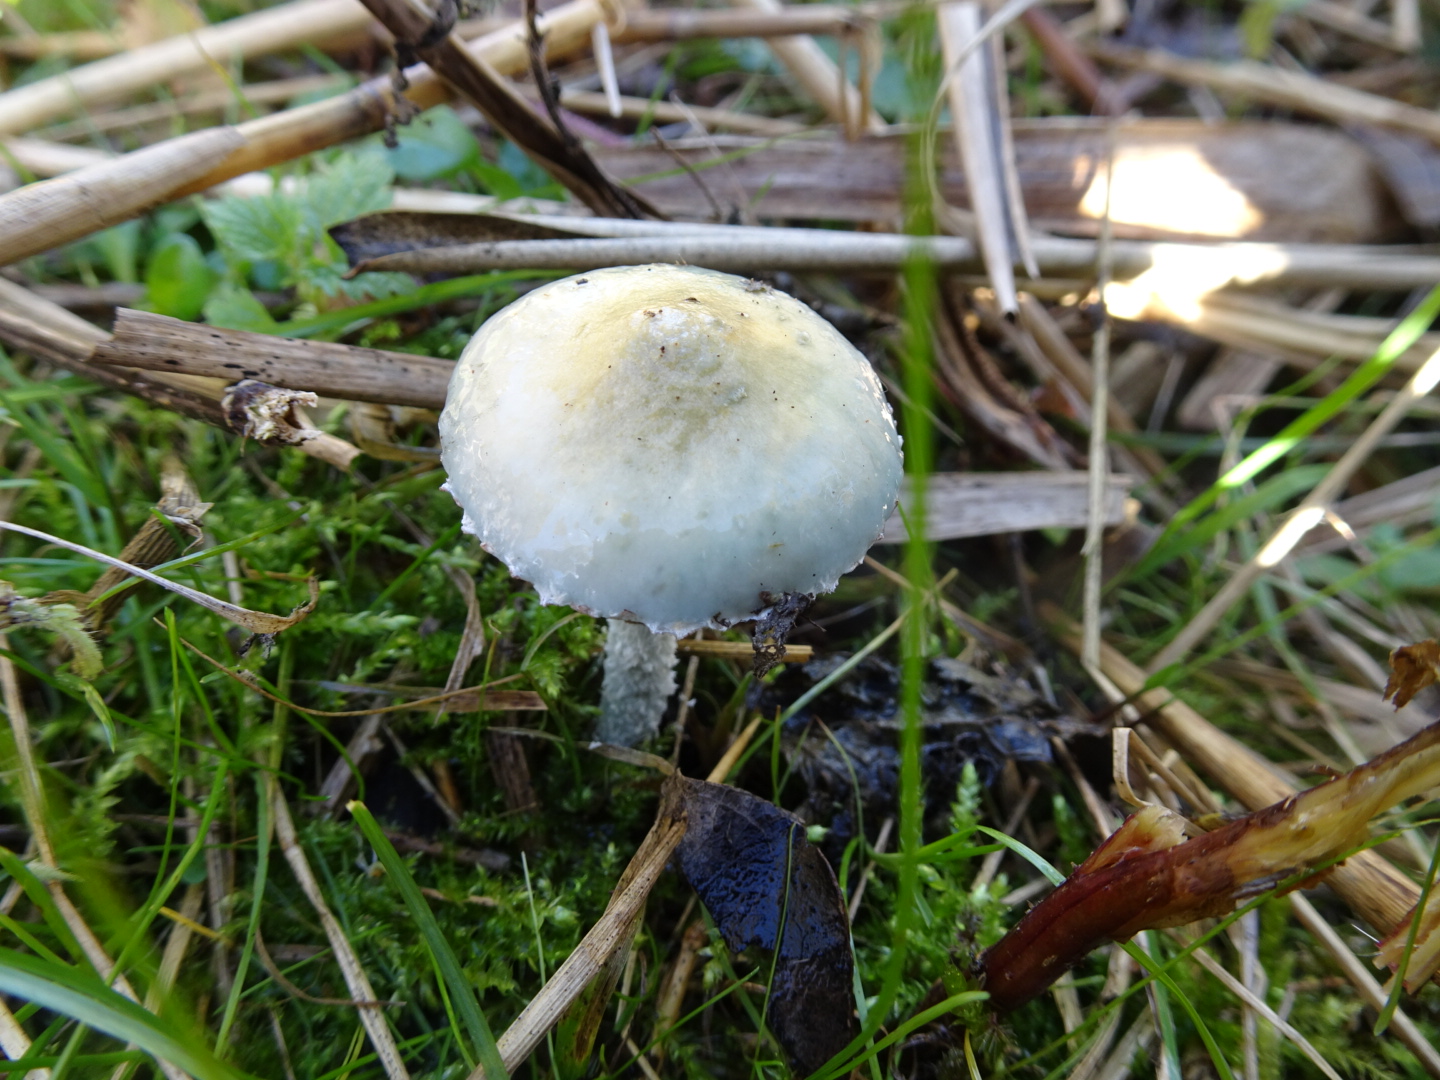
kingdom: Fungi
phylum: Basidiomycota
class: Agaricomycetes
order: Agaricales
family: Strophariaceae
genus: Stropharia
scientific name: Stropharia cyanea
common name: blågrøn bredblad
